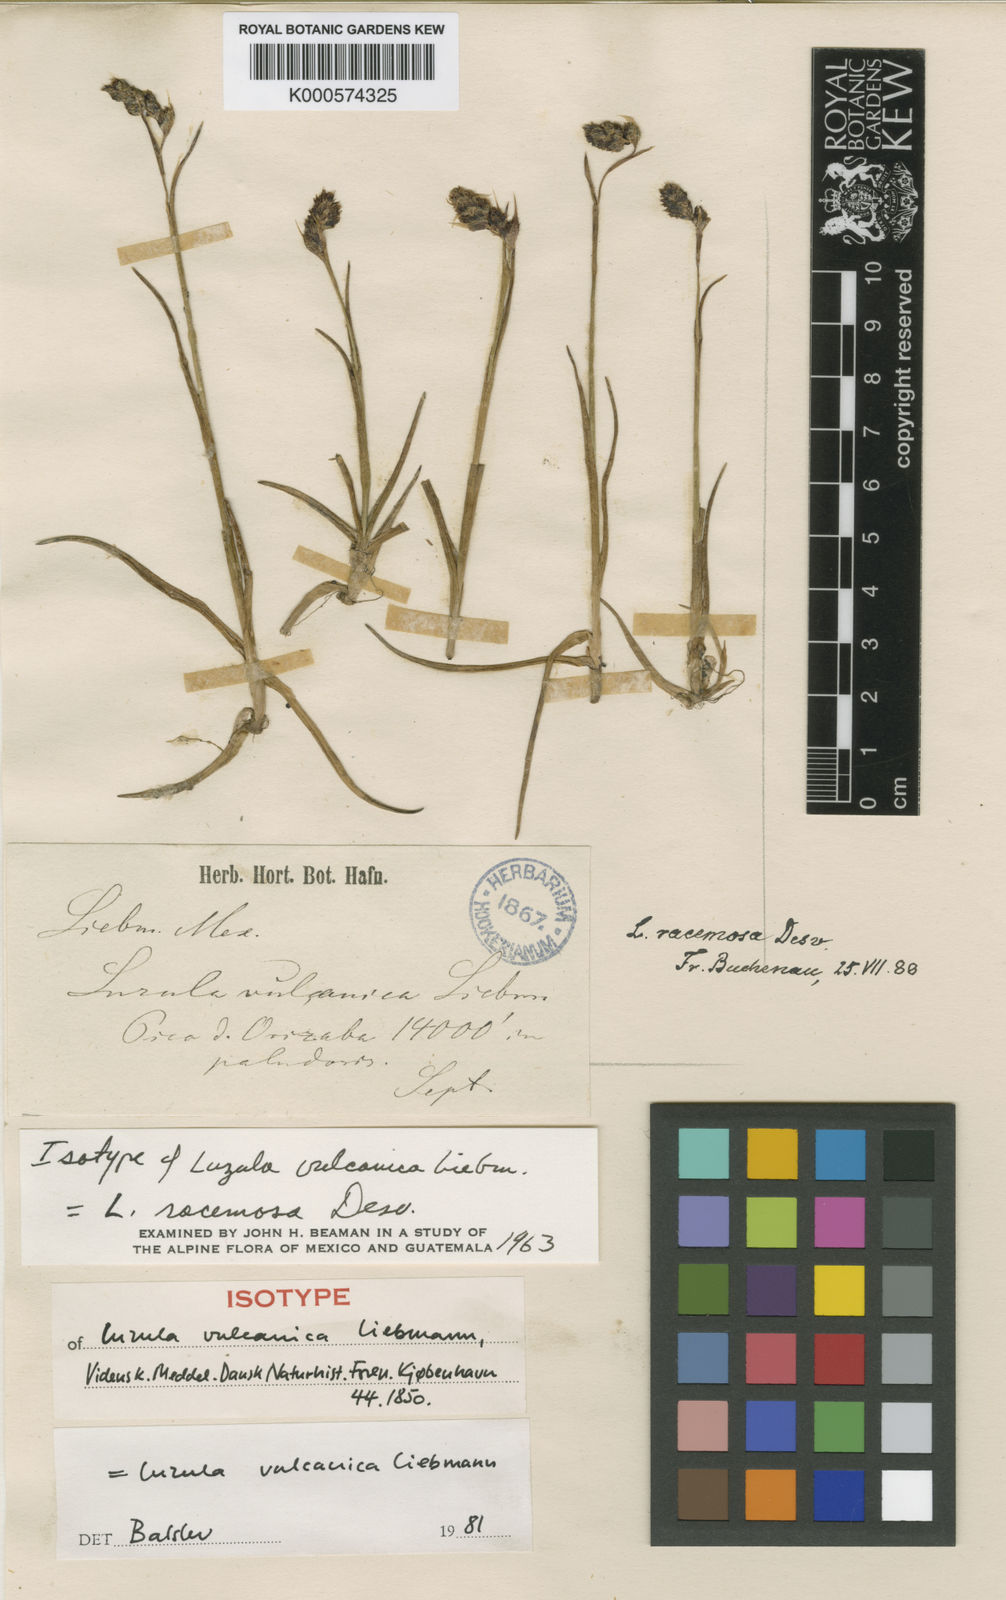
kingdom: Plantae
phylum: Tracheophyta
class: Liliopsida
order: Poales
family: Juncaceae
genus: Luzula
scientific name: Luzula racemosa
